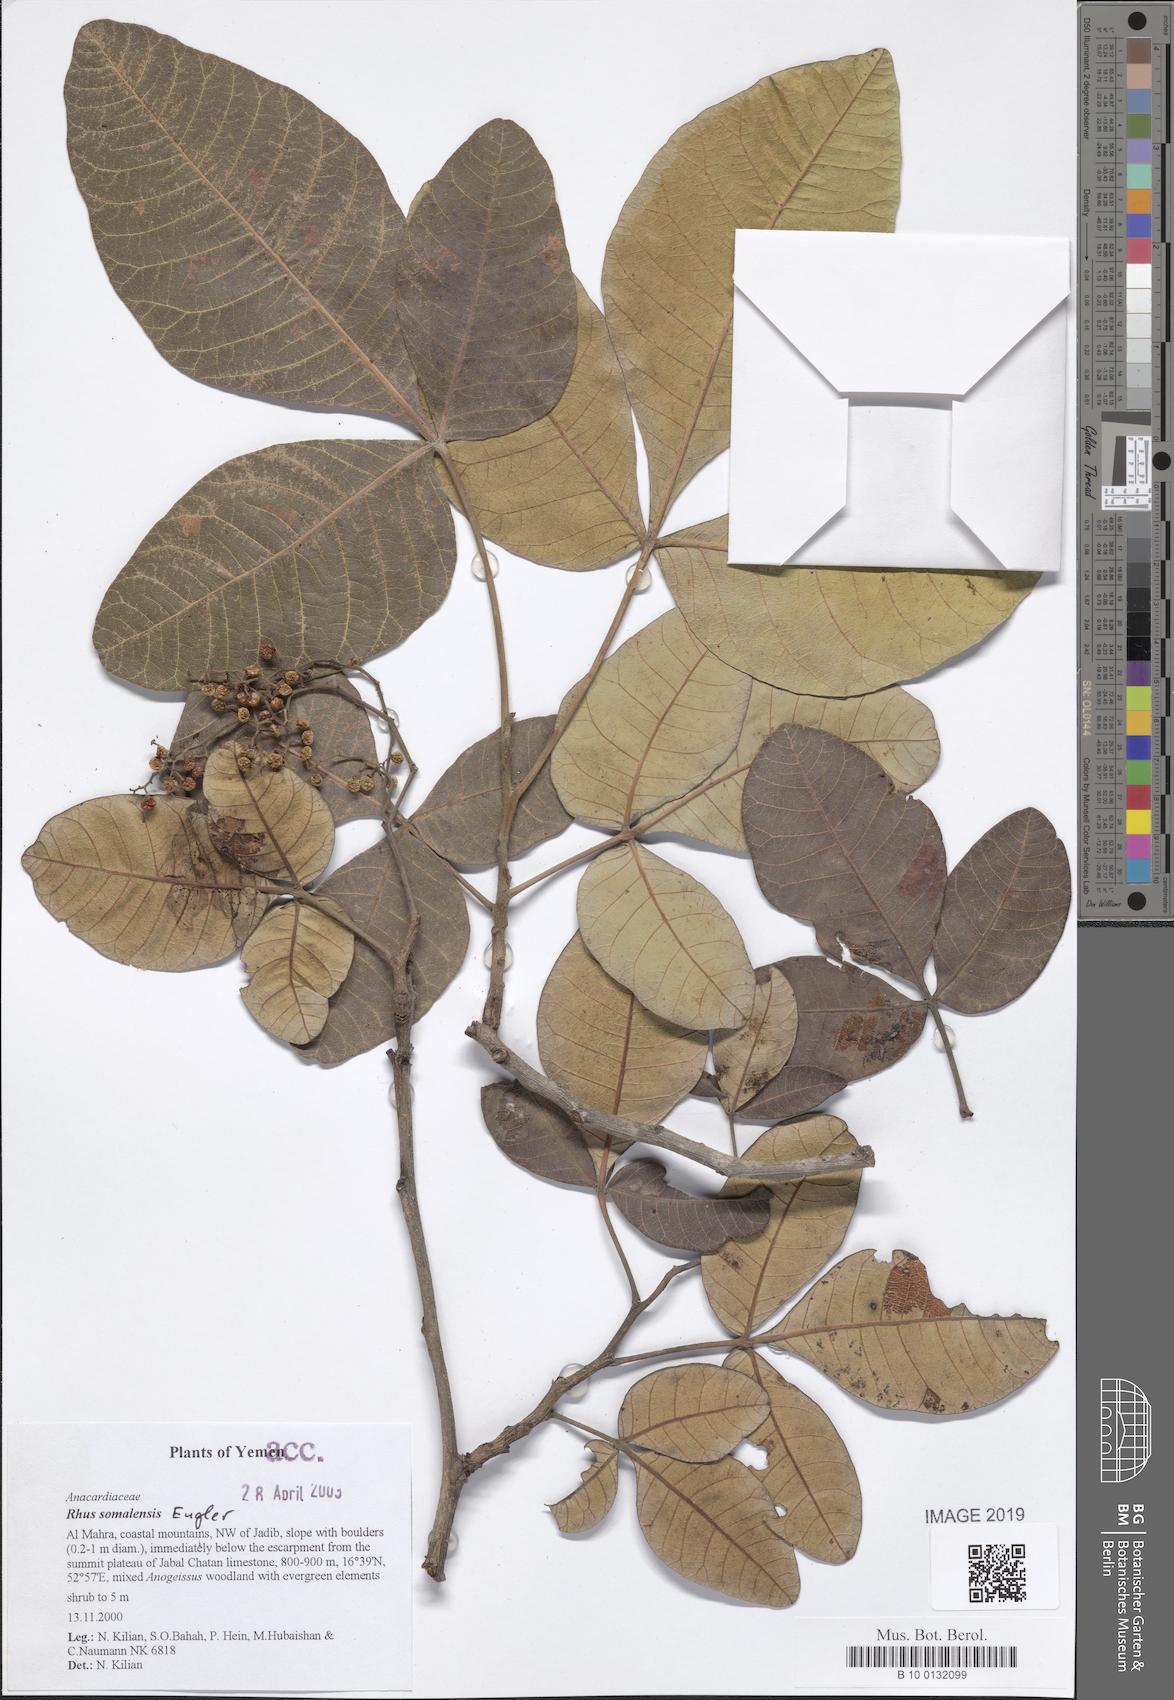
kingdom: Plantae
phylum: Tracheophyta
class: Magnoliopsida
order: Sapindales
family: Anacardiaceae
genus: Searsia
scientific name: Searsia somalensis
